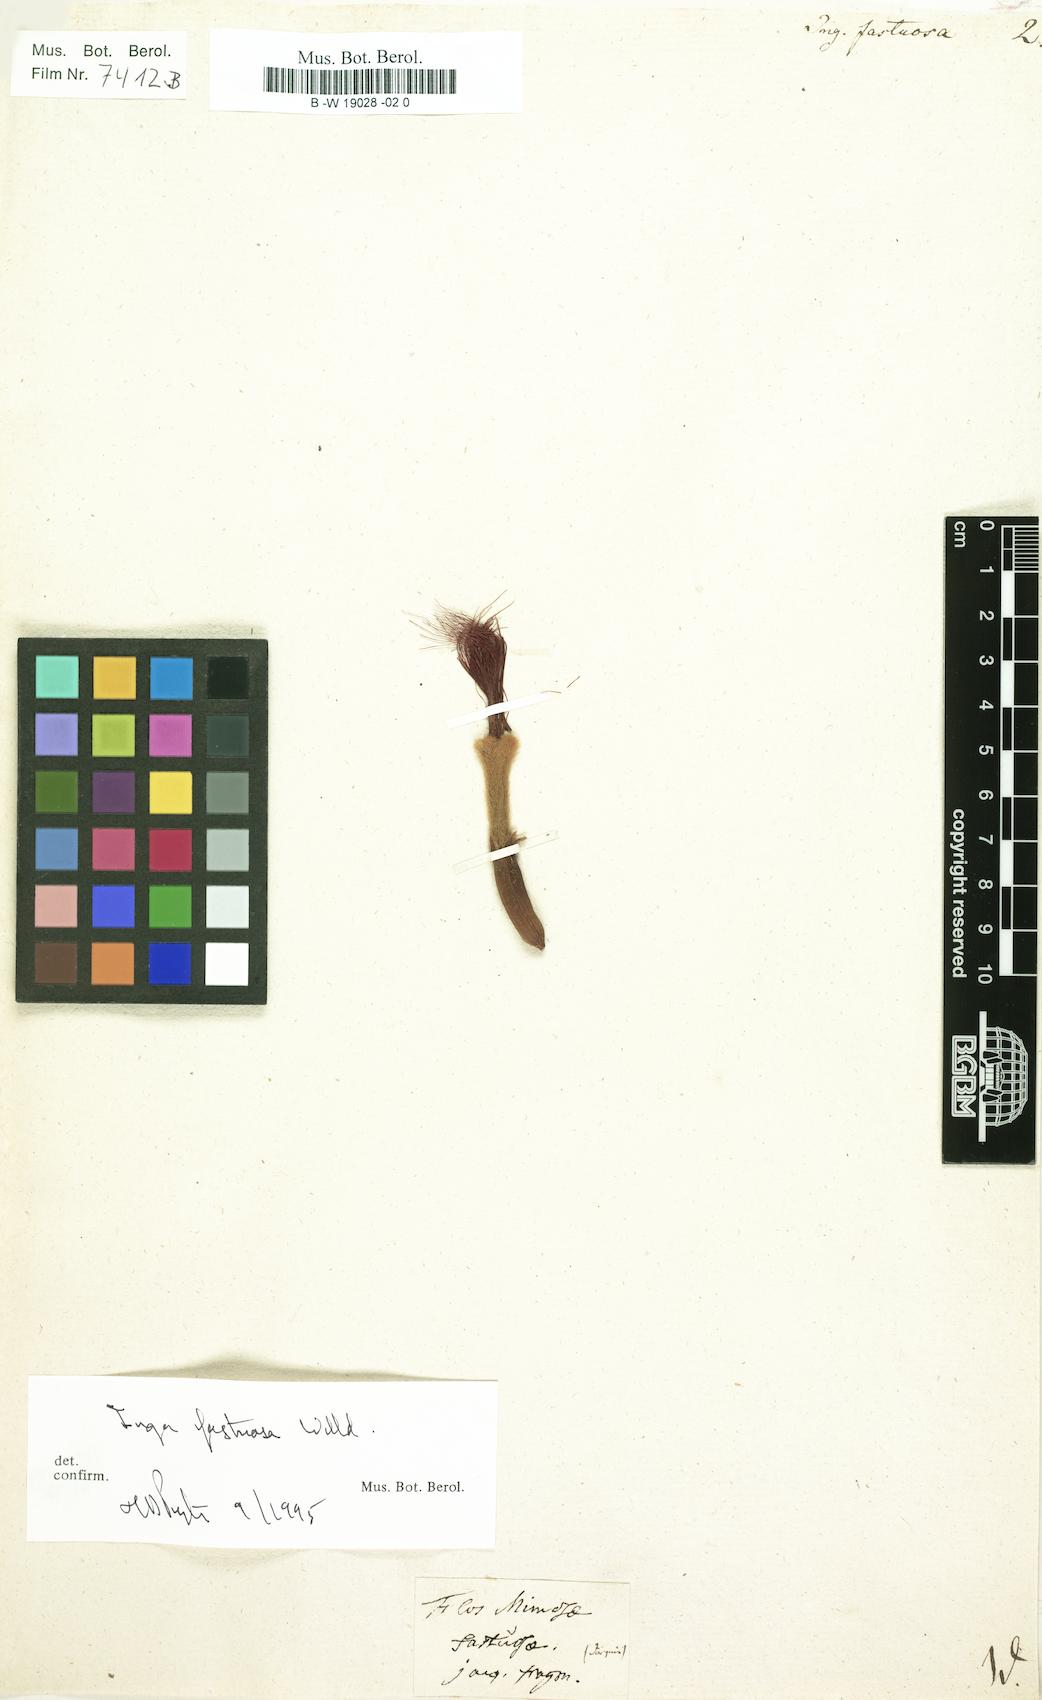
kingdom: Plantae
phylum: Tracheophyta
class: Magnoliopsida
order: Fabales
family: Fabaceae
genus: Inga
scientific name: Inga fastuosa
